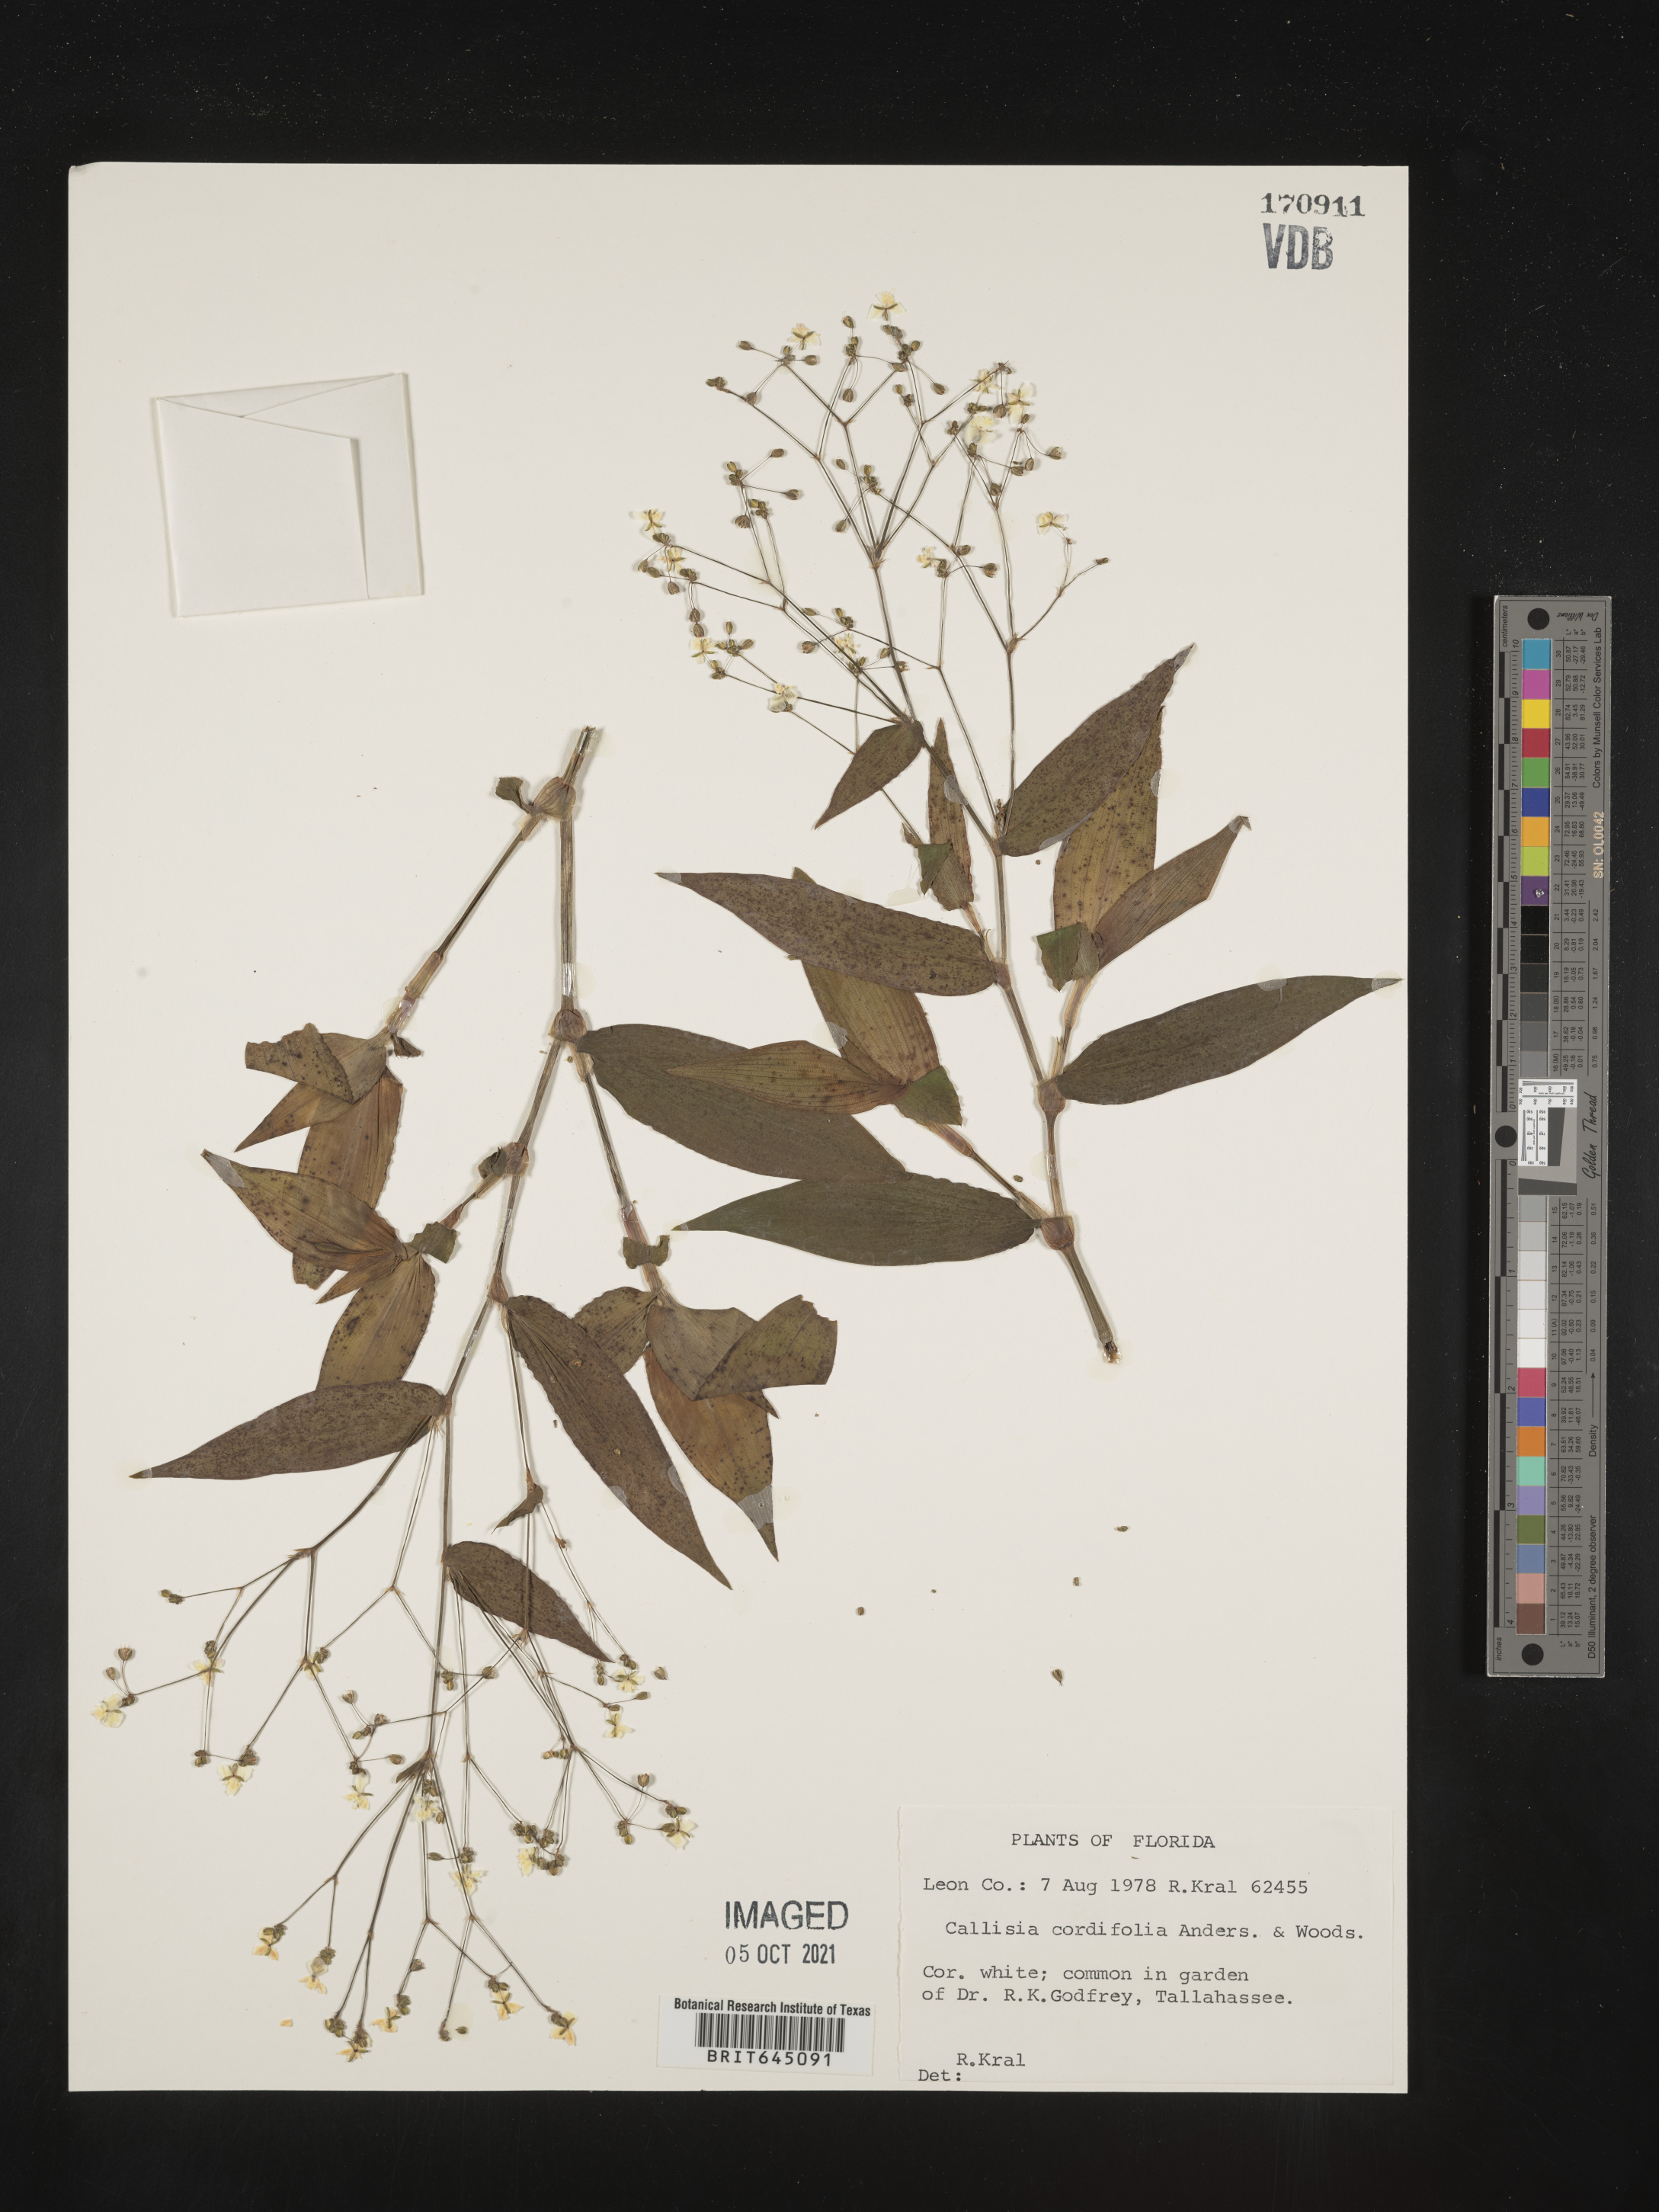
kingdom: Plantae
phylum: Tracheophyta
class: Liliopsida
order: Commelinales
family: Commelinaceae
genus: Callisia
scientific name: Callisia cordifolia
